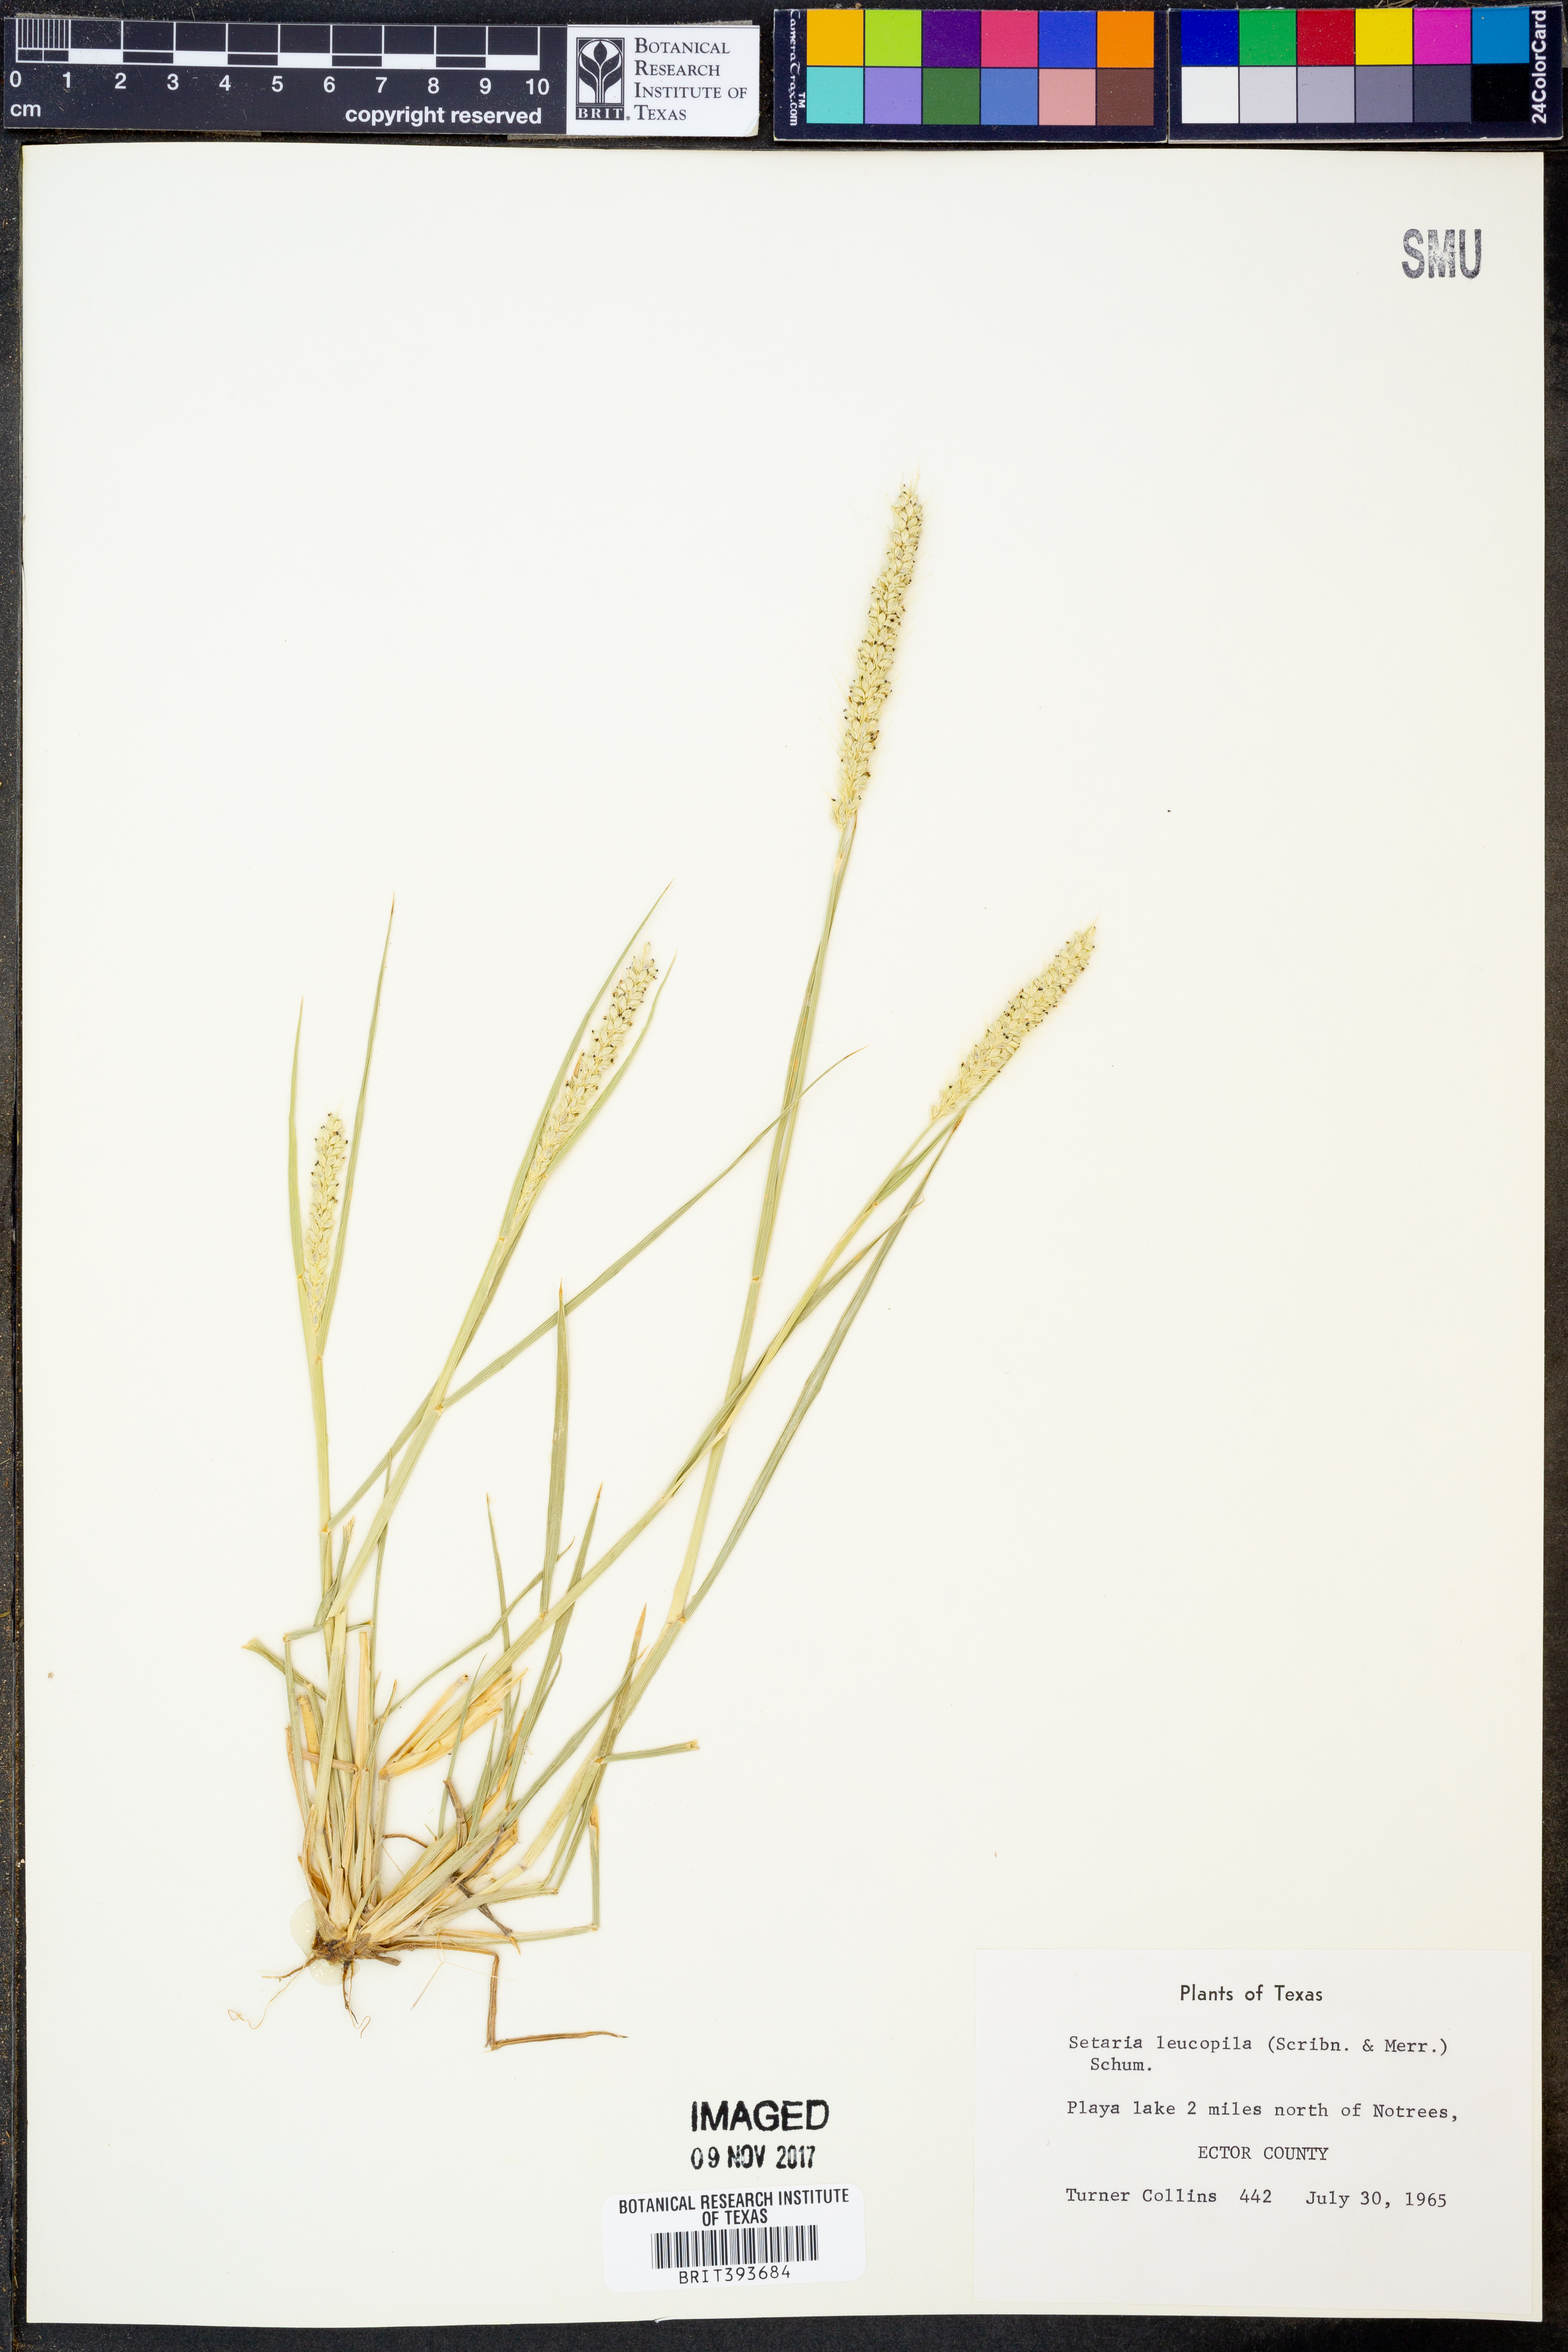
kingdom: Plantae
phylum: Tracheophyta
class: Liliopsida
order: Poales
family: Poaceae
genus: Setaria
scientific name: Setaria leucopila
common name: Plains bristle grass
